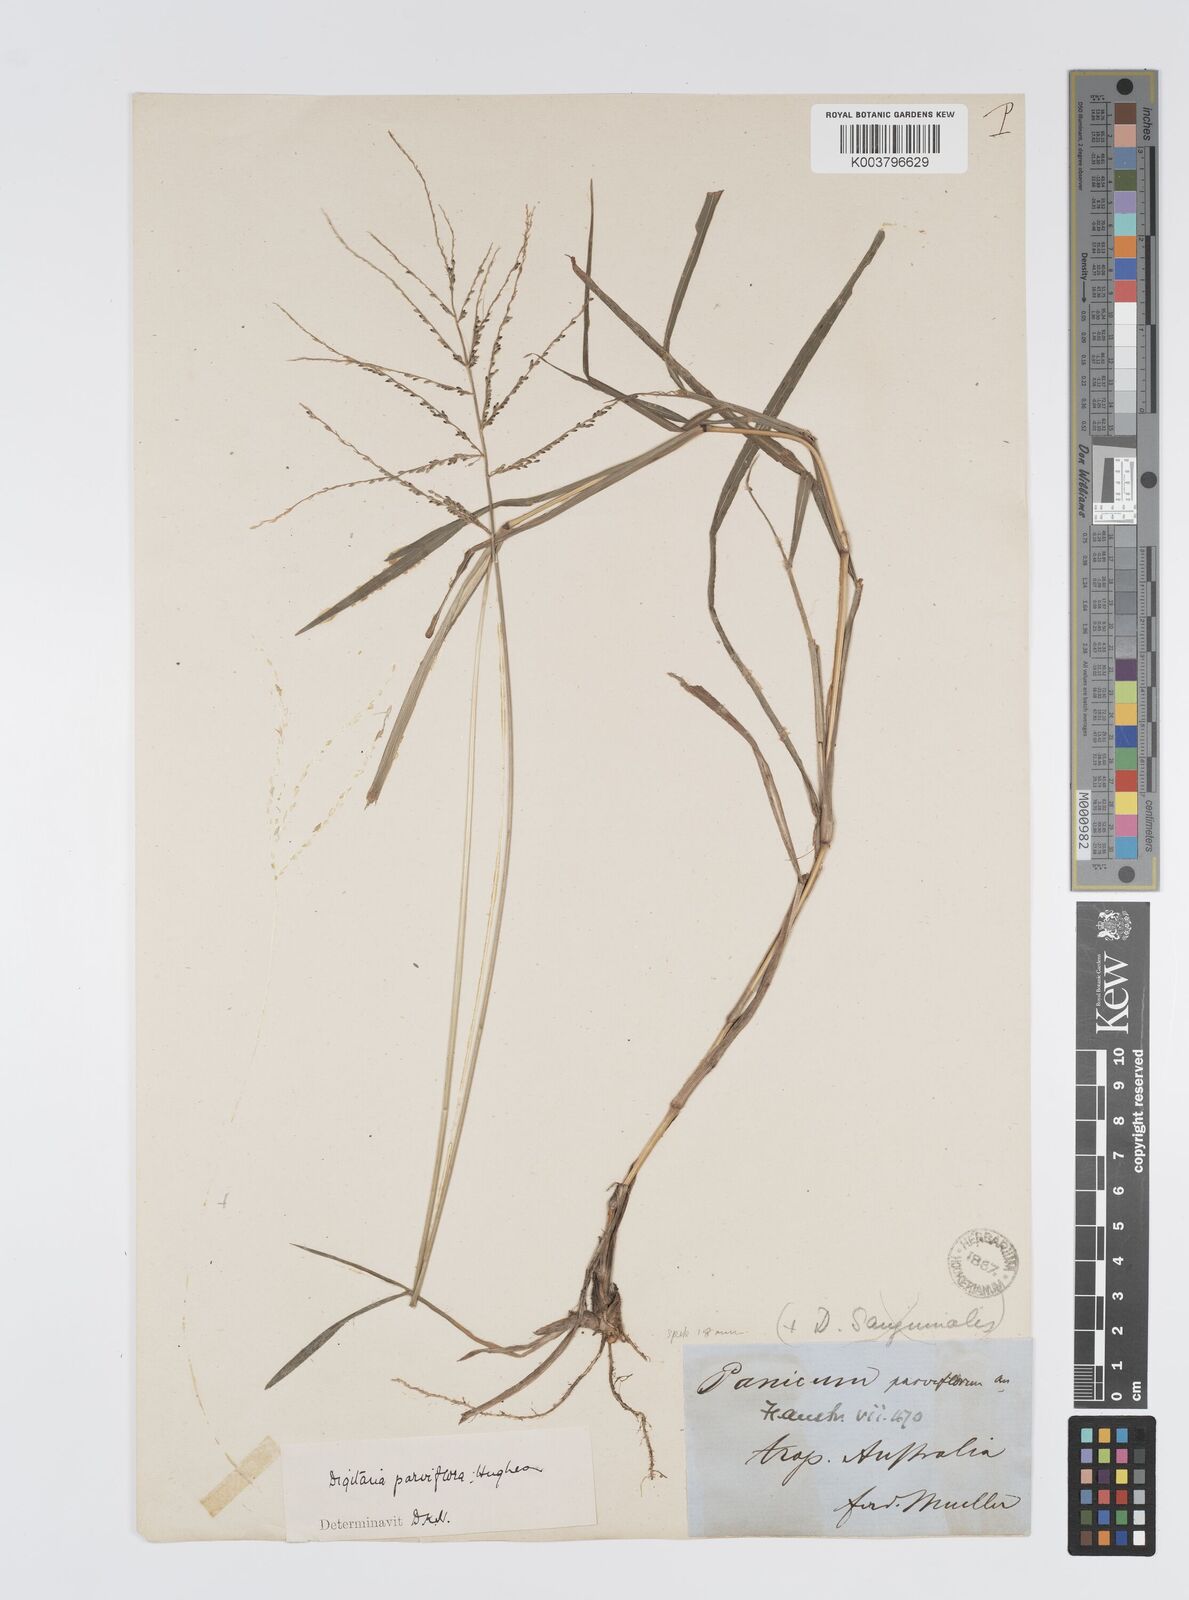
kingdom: Plantae
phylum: Tracheophyta
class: Liliopsida
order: Poales
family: Poaceae
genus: Digitaria
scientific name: Digitaria parviflora
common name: Small-flower finger grass
